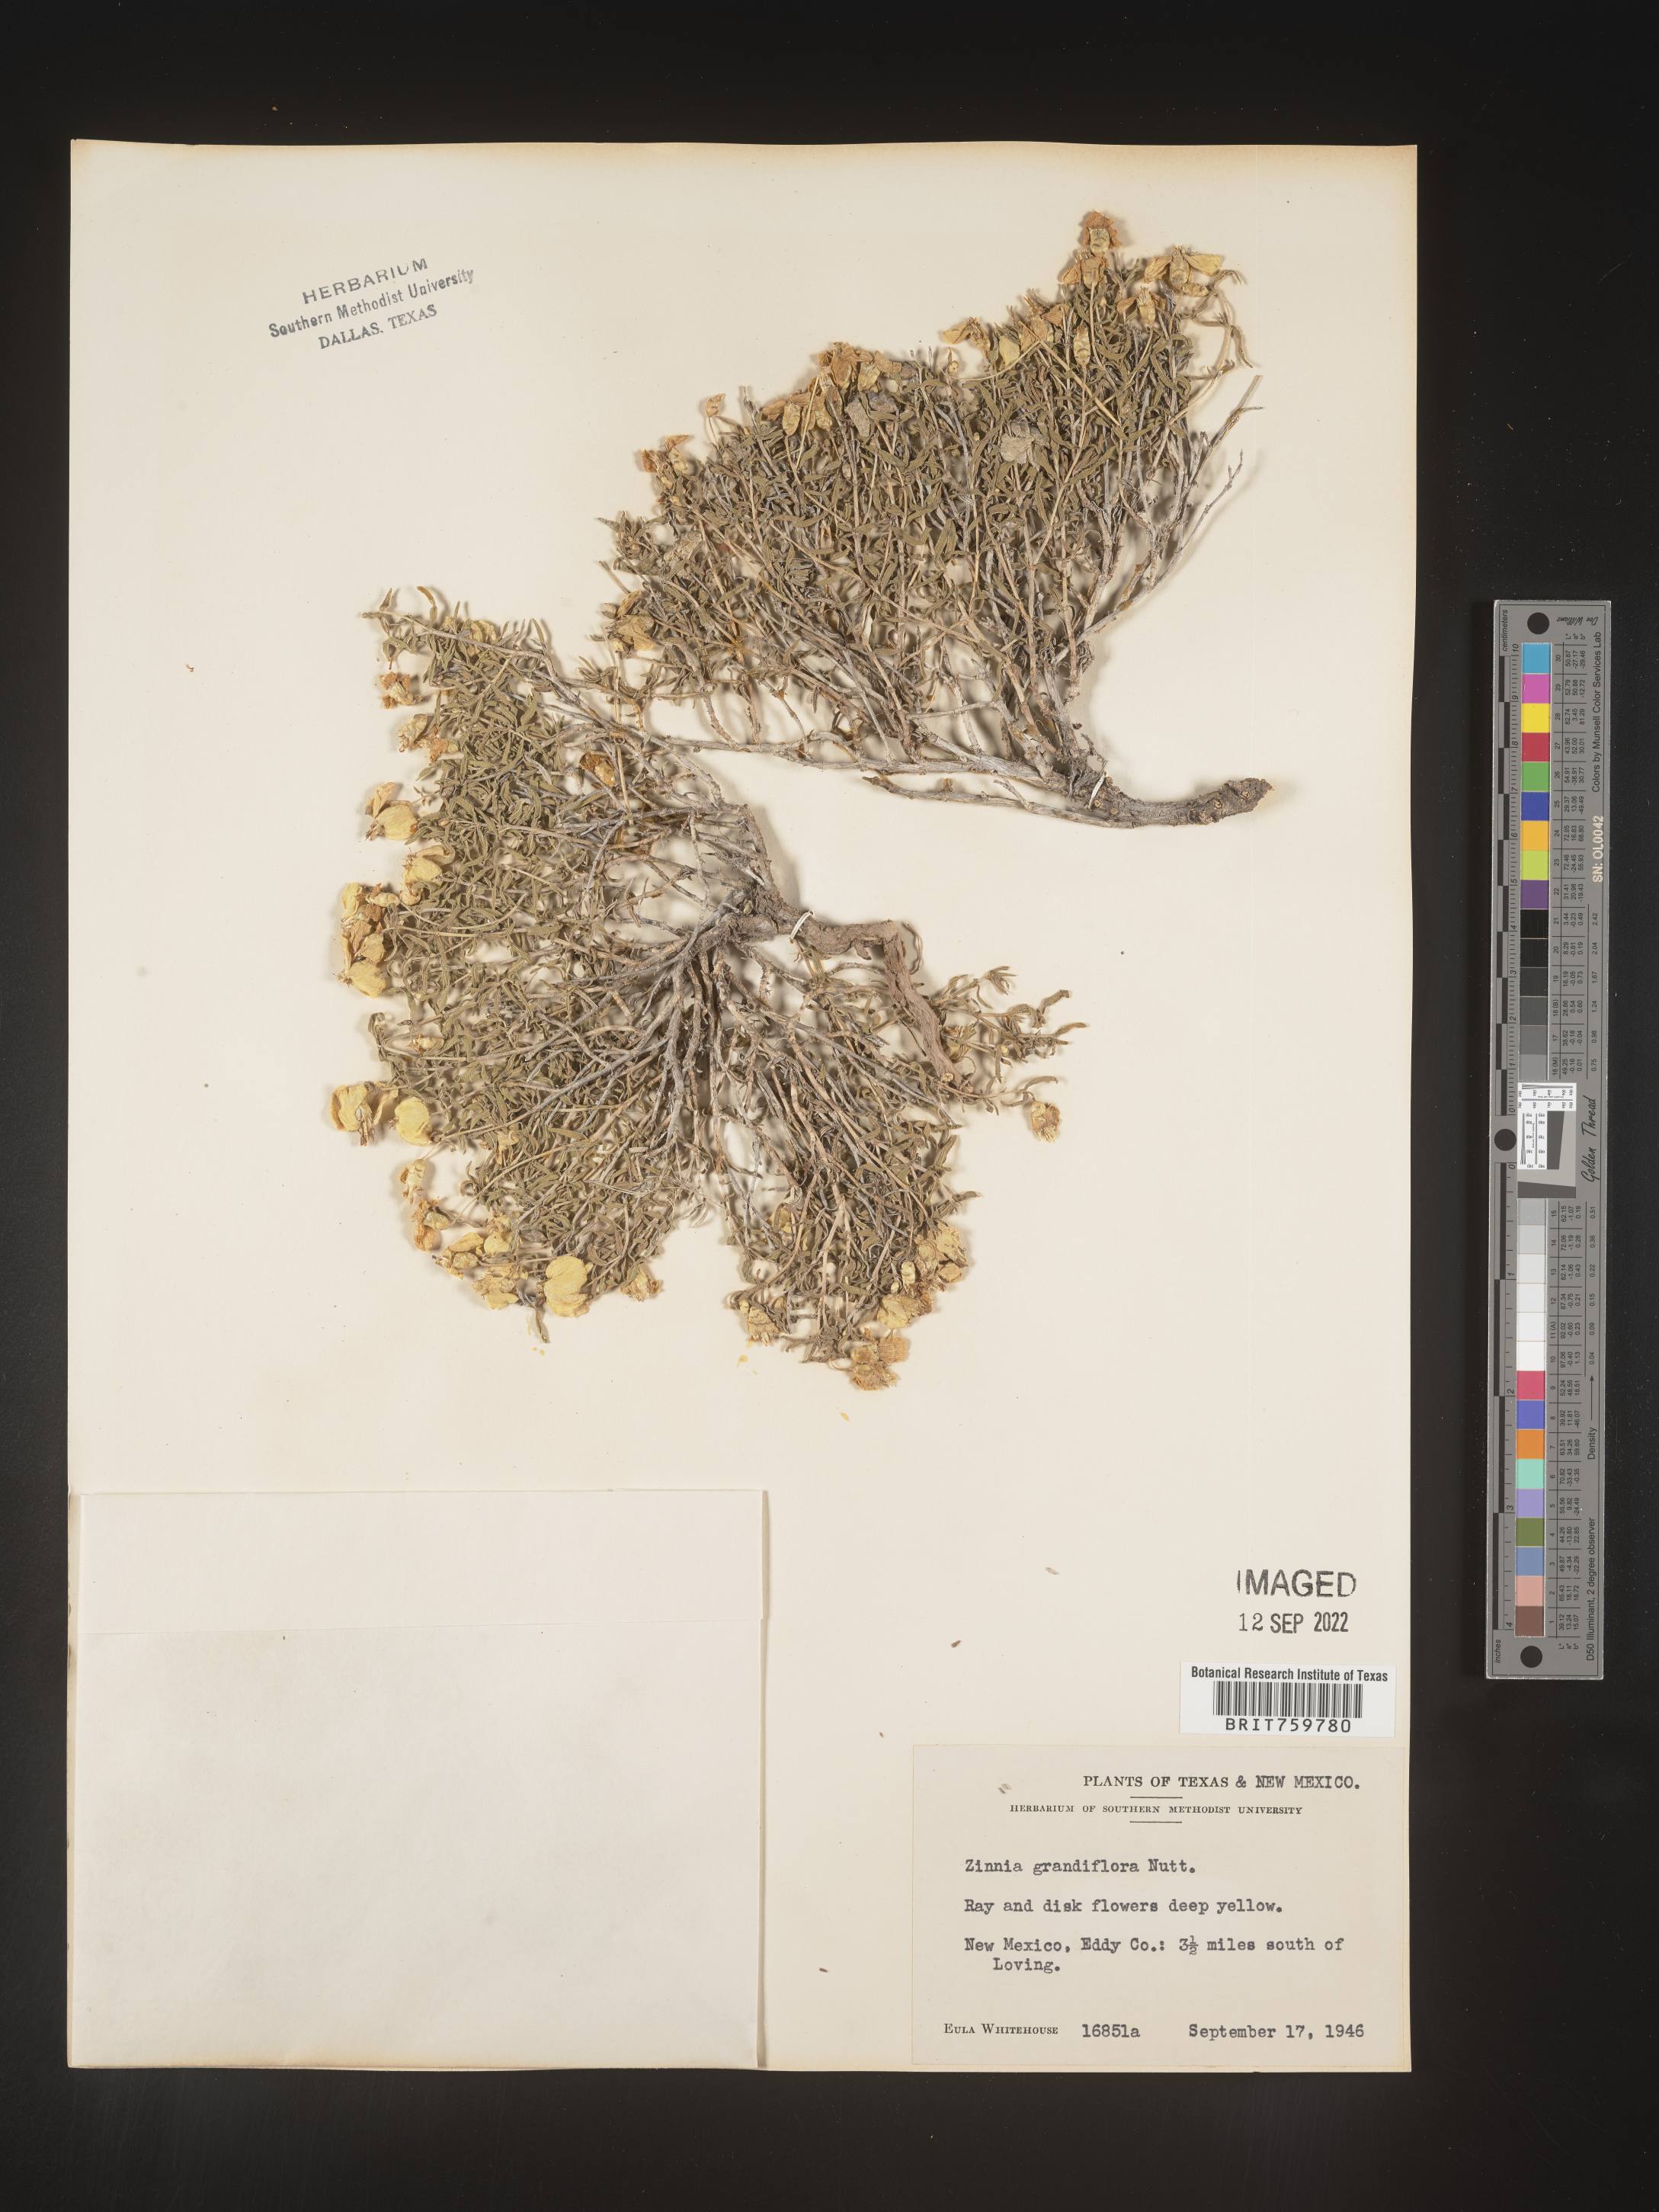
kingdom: Plantae
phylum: Tracheophyta
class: Magnoliopsida
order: Asterales
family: Asteraceae
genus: Zinnia
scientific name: Zinnia grandiflora
